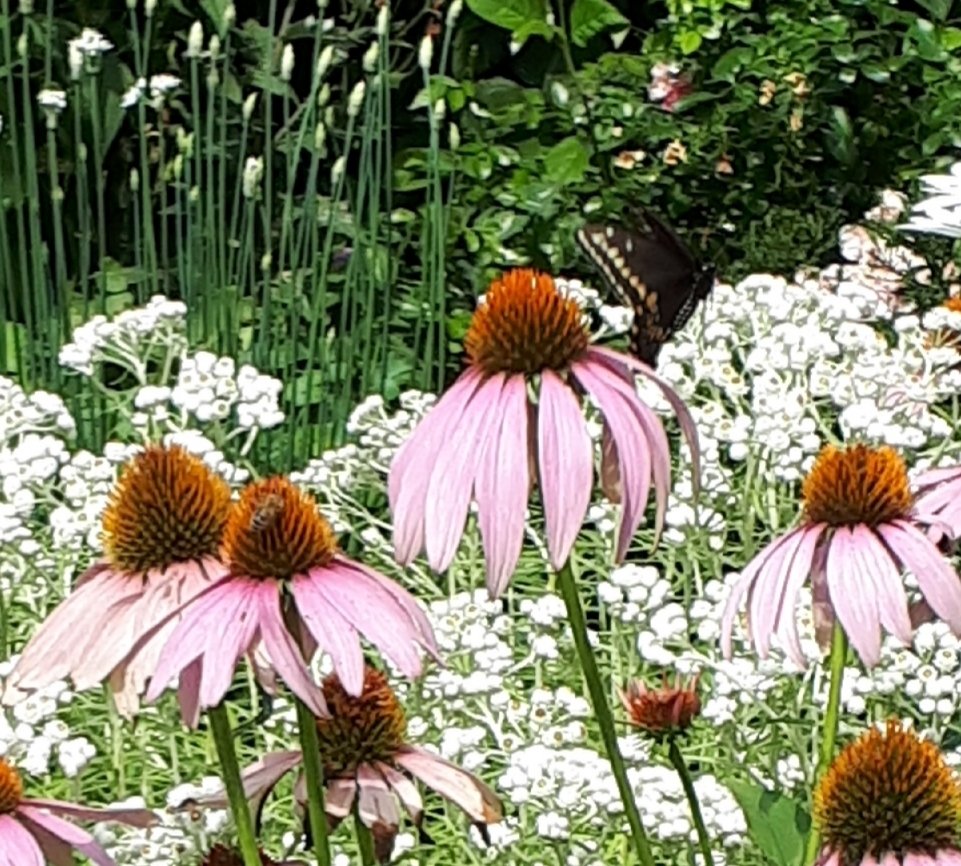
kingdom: Animalia
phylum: Arthropoda
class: Insecta
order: Lepidoptera
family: Papilionidae
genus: Papilio
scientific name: Papilio polyxenes
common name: Black Swallowtail
